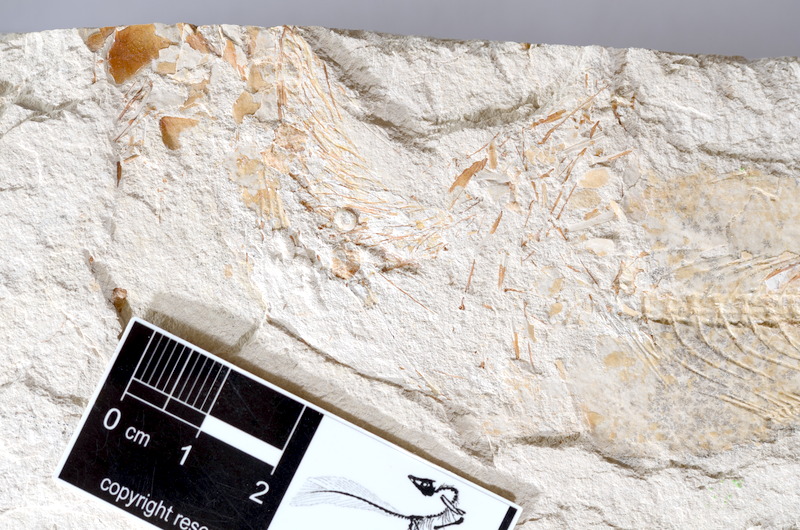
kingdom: Animalia
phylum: Chordata
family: Ascalaboidae
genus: Tharsis
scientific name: Tharsis dubius
